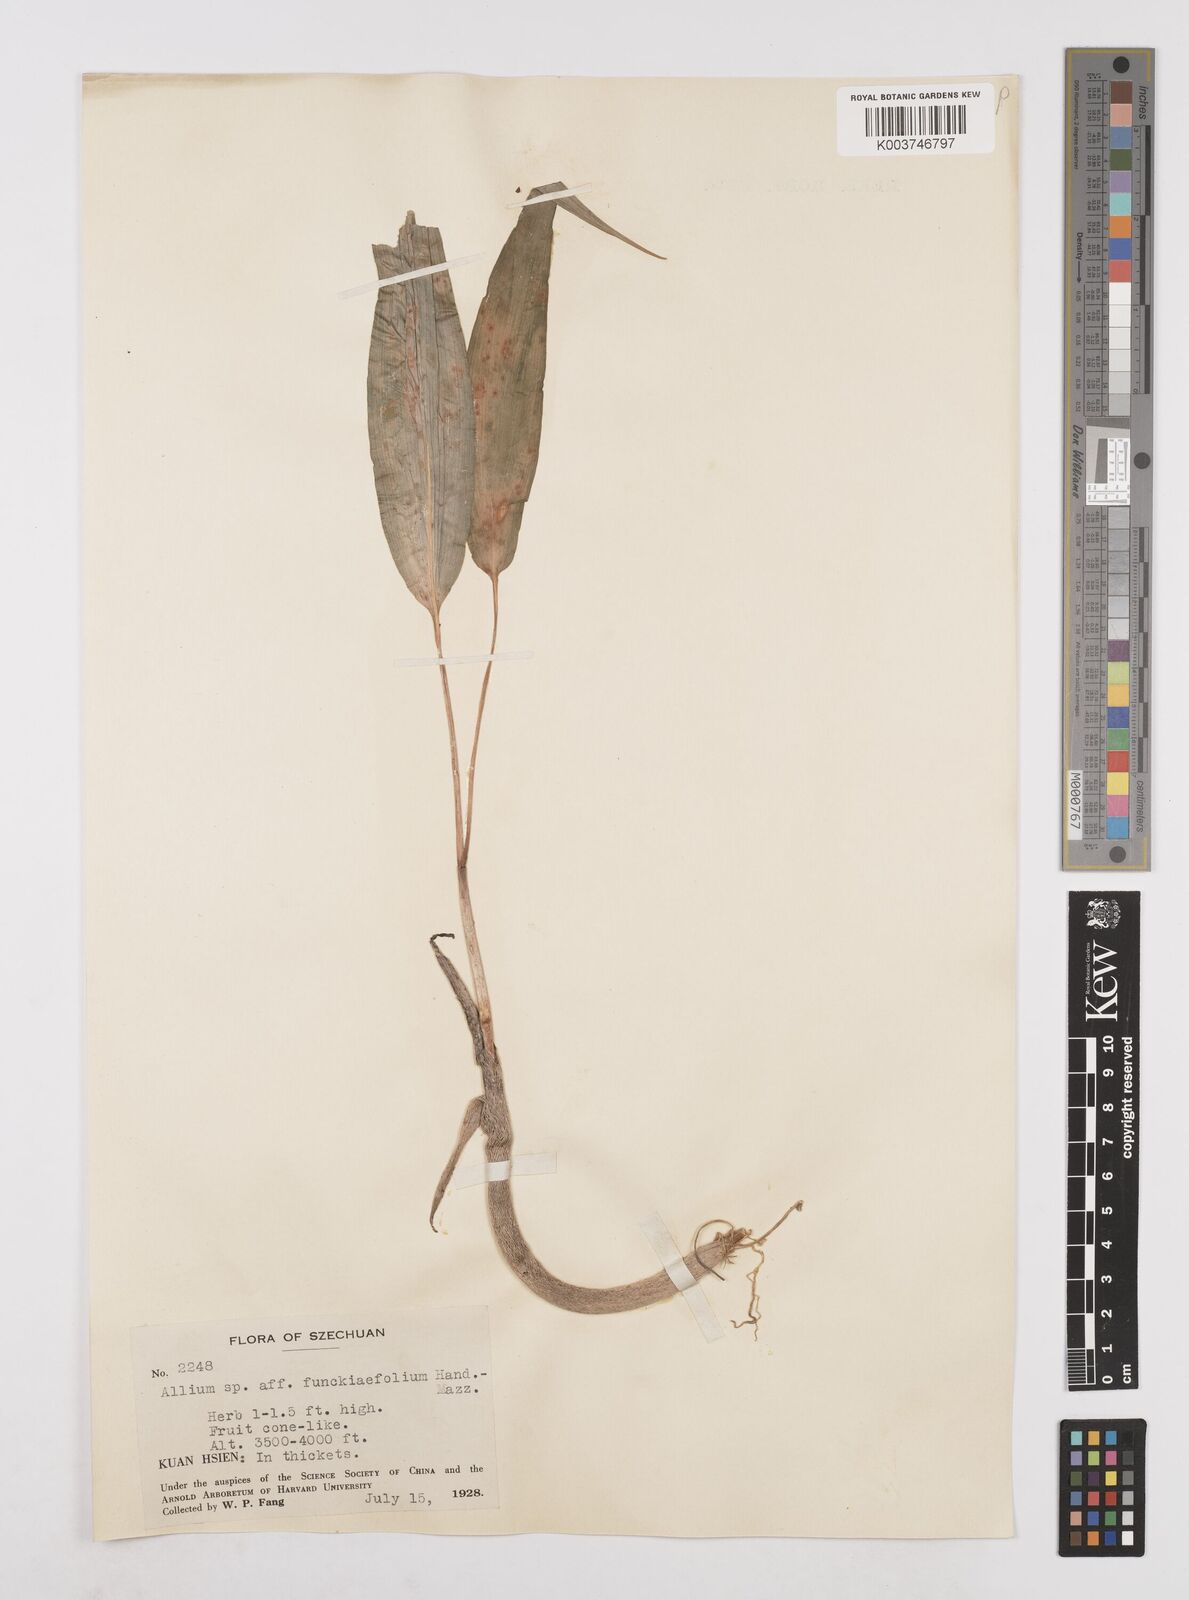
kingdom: Plantae
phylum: Tracheophyta
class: Liliopsida
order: Asparagales
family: Amaryllidaceae
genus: Allium
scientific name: Allium funckiifolium
